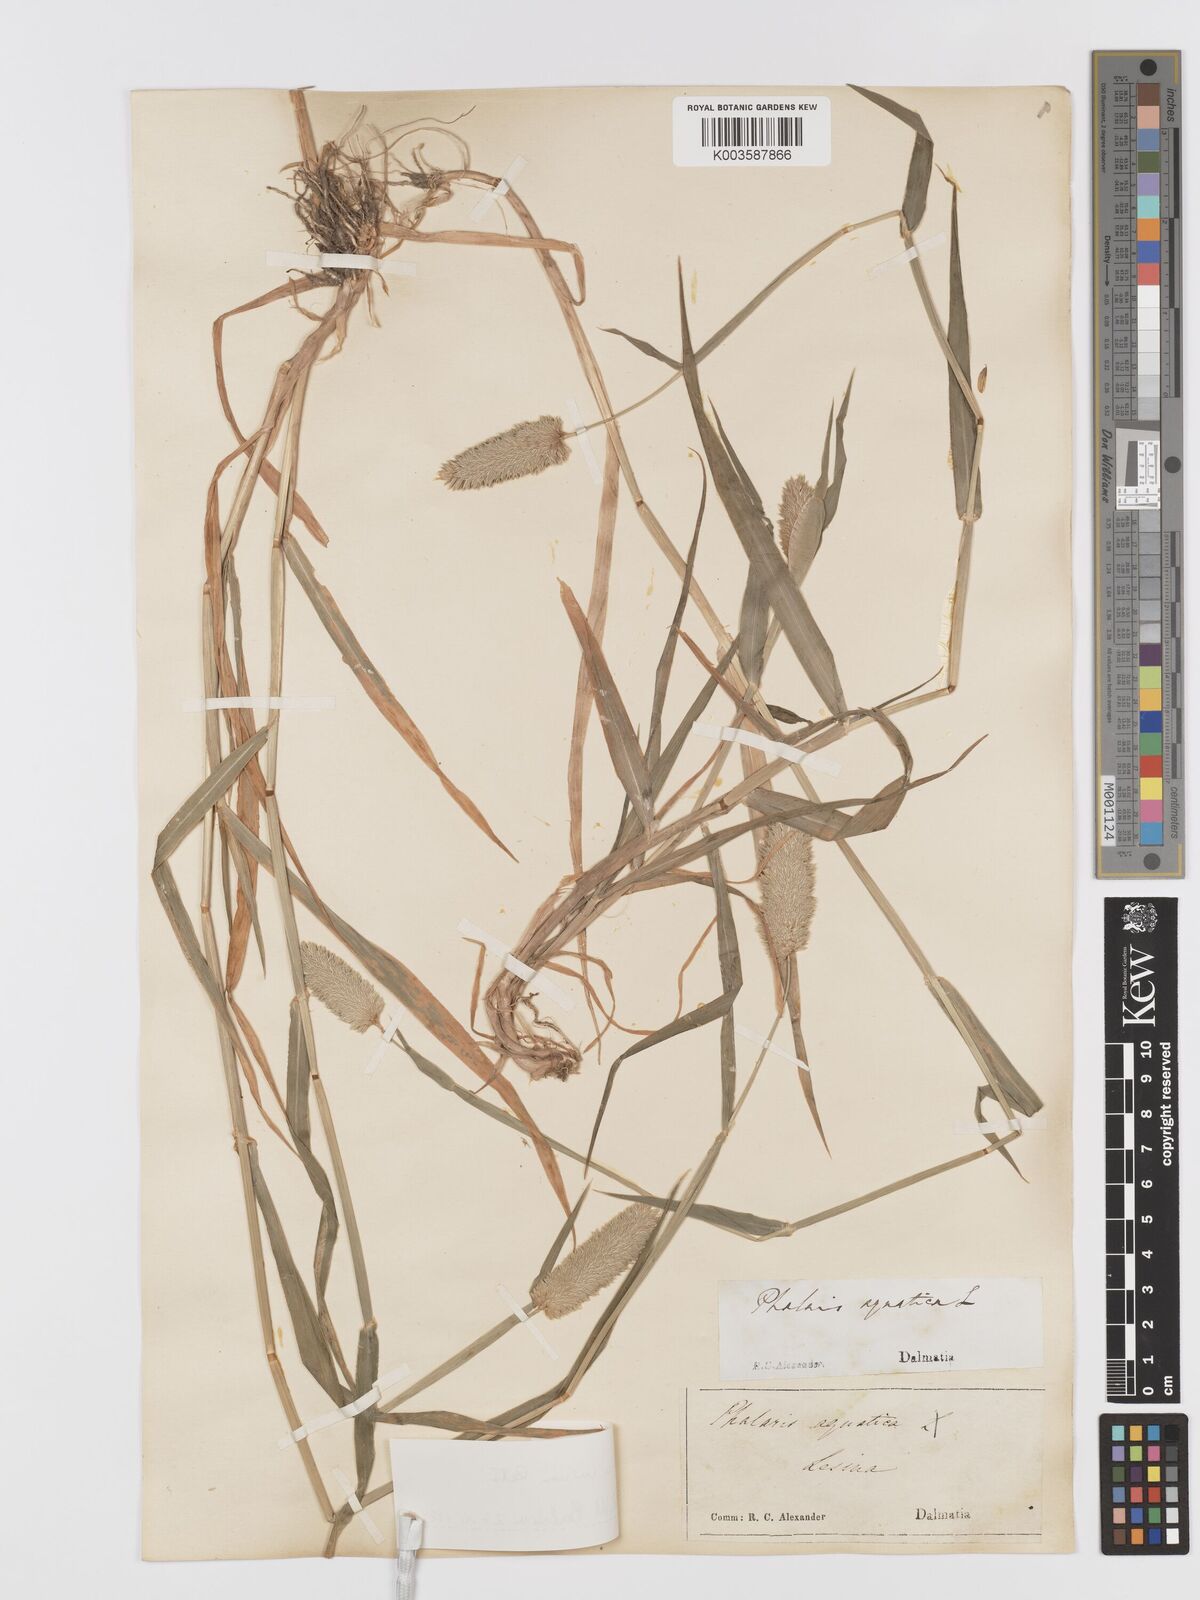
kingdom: Plantae
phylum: Tracheophyta
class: Liliopsida
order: Poales
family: Poaceae
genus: Phalaris
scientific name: Phalaris minor
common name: Littleseed canarygrass
